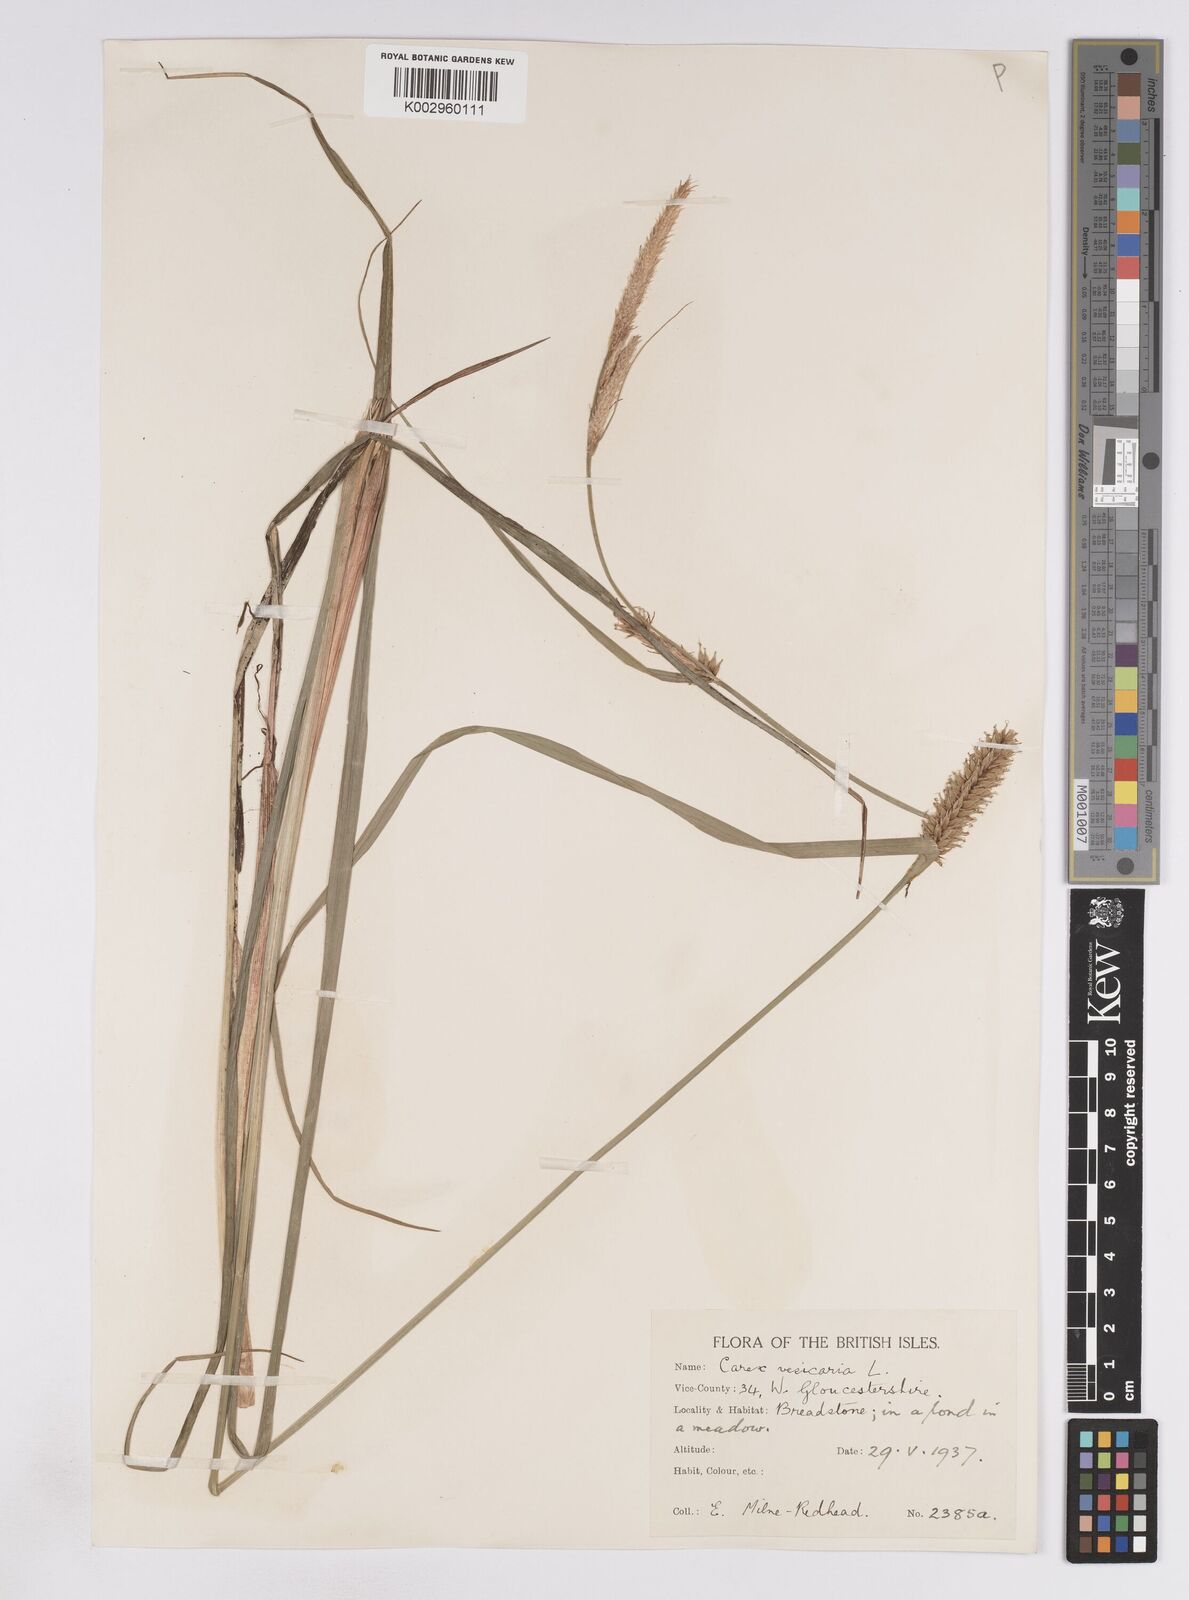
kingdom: Plantae
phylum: Tracheophyta
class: Liliopsida
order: Poales
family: Cyperaceae
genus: Carex
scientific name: Carex vesicaria
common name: Bladder-sedge
